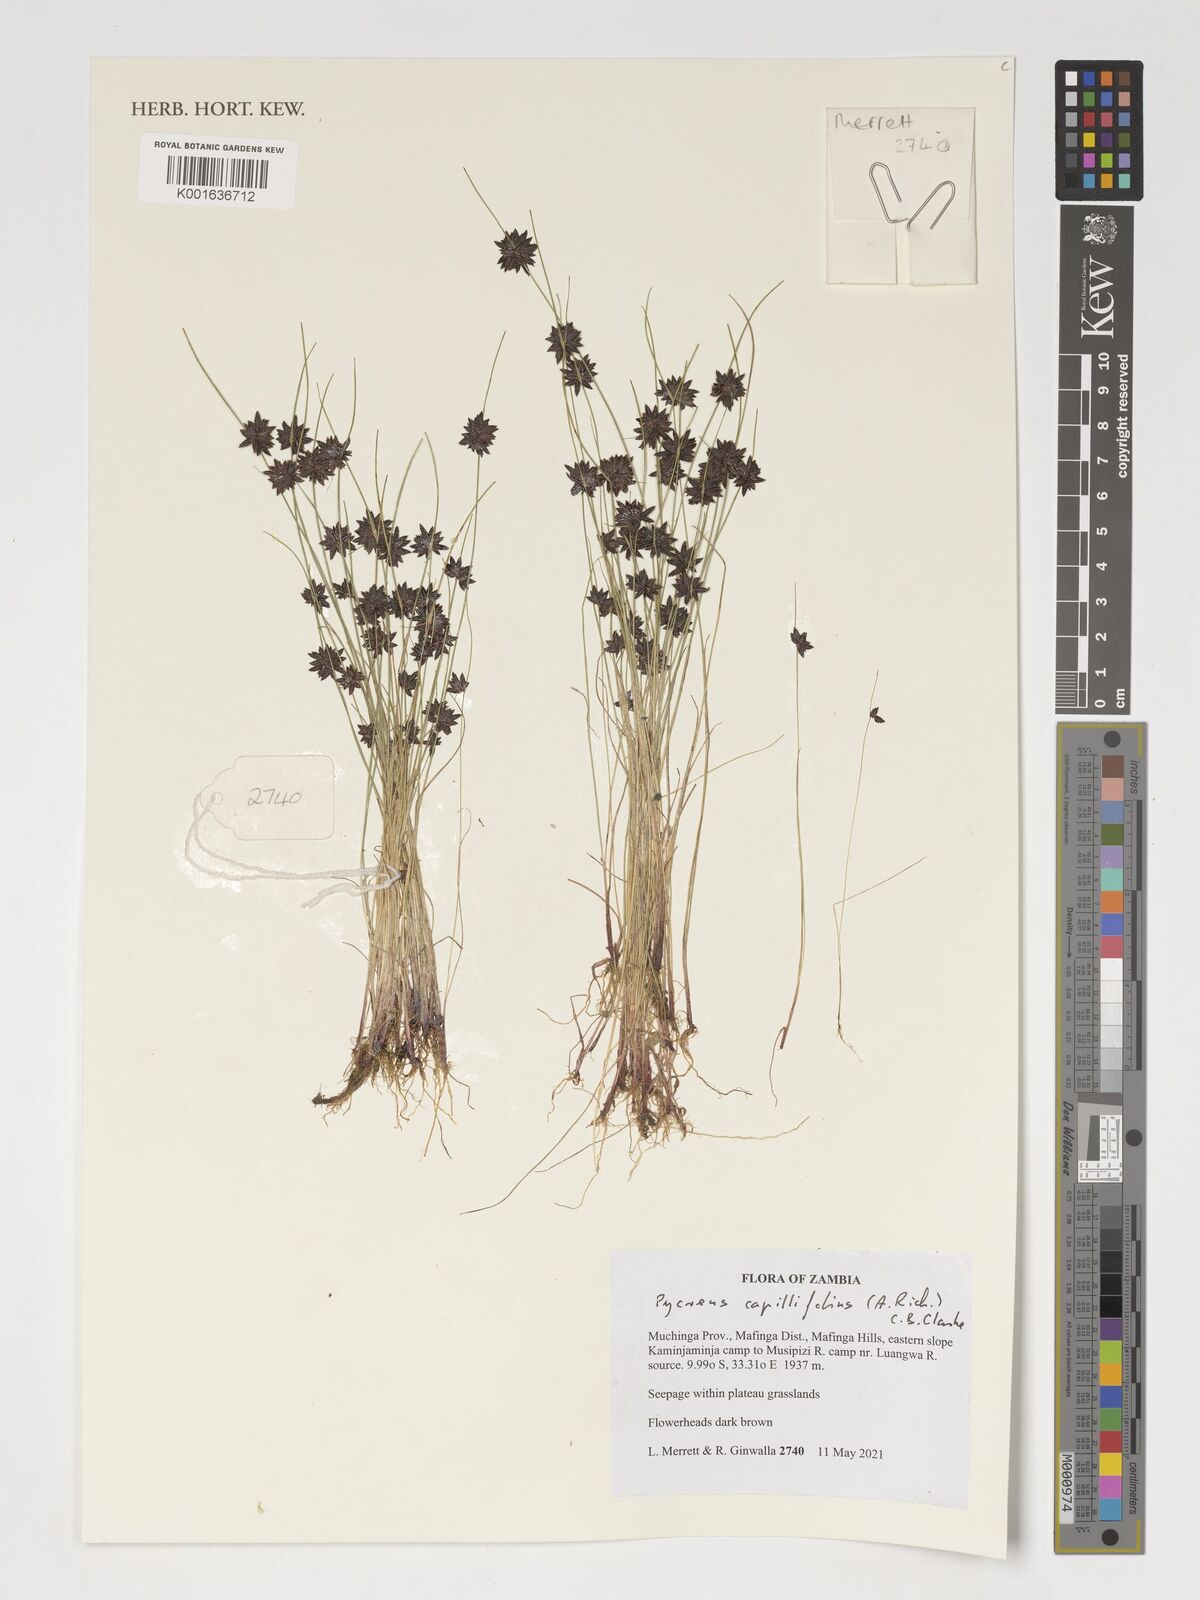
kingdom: Plantae
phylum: Tracheophyta
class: Liliopsida
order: Poales
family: Cyperaceae
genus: Cyperus
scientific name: Cyperus capillifolius
